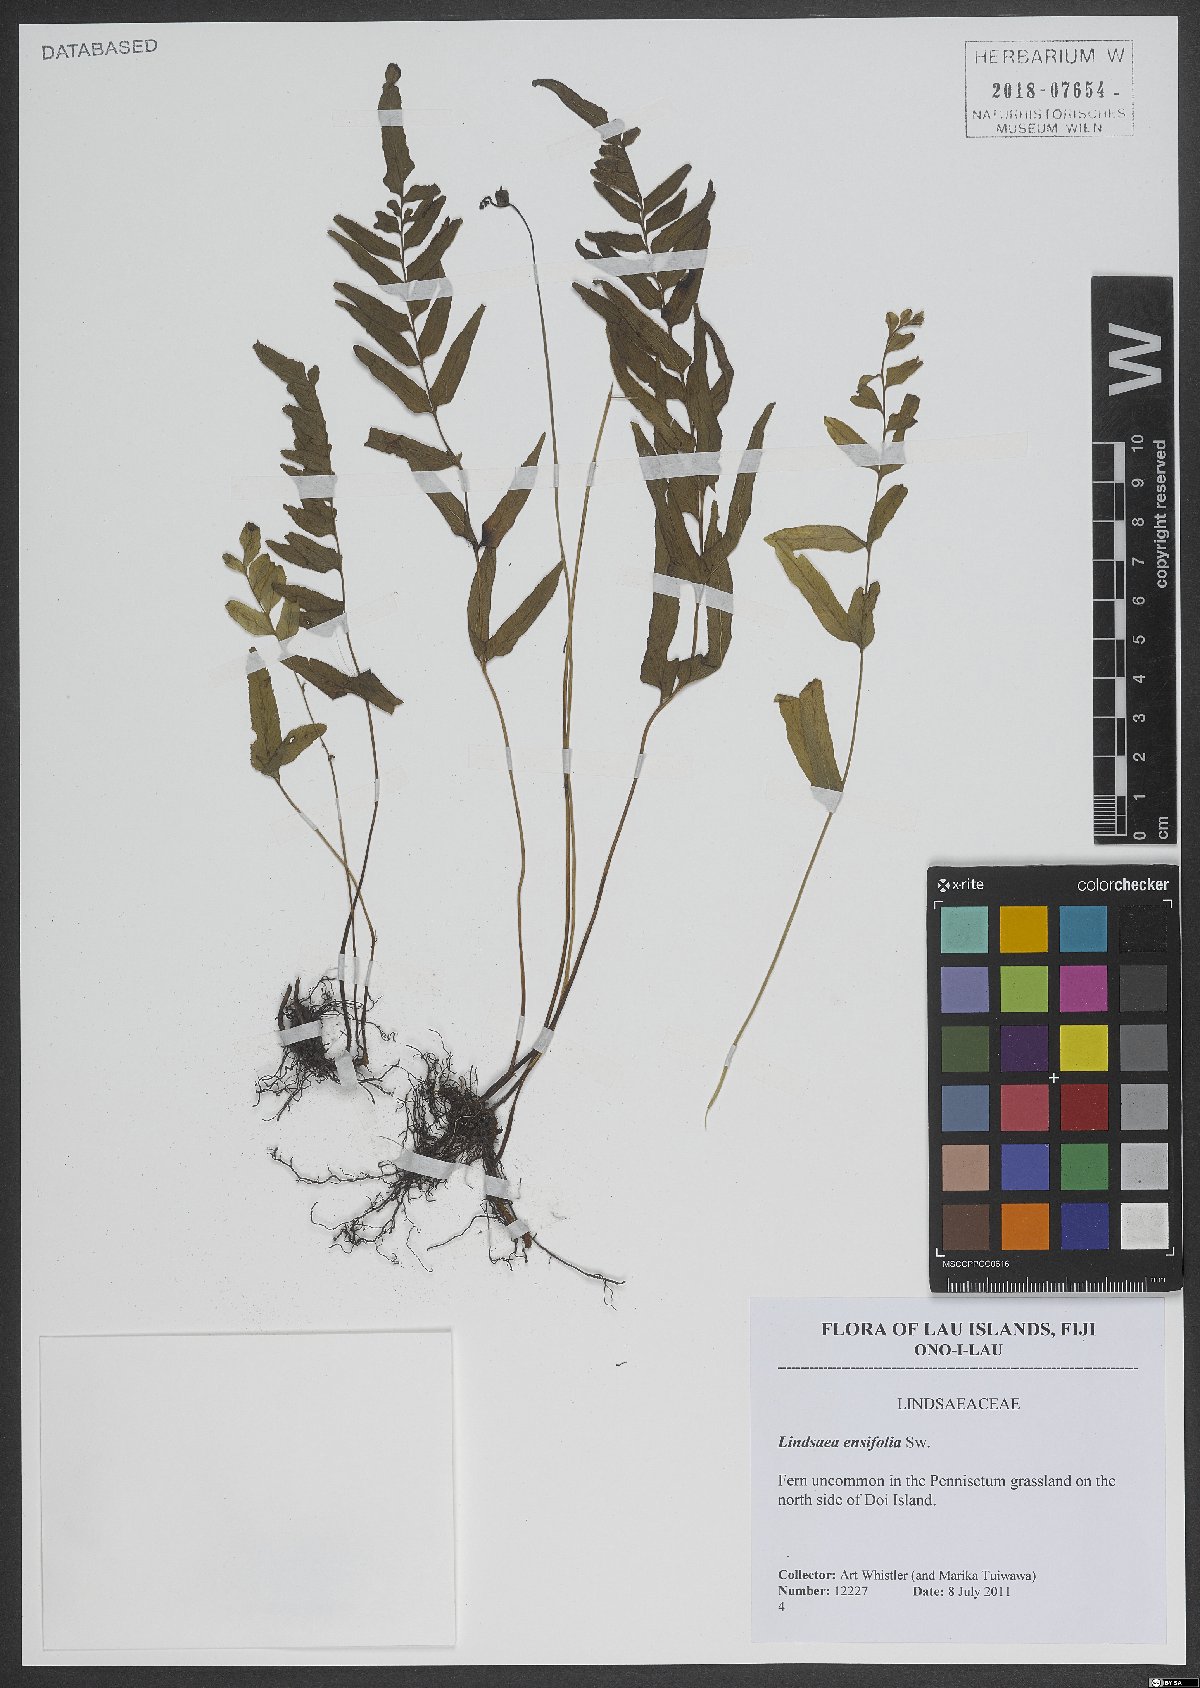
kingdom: Plantae
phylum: Tracheophyta
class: Polypodiopsida
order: Polypodiales
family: Lindsaeaceae
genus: Lindsaea
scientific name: Lindsaea ensifolia
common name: Graceful necklace fern
